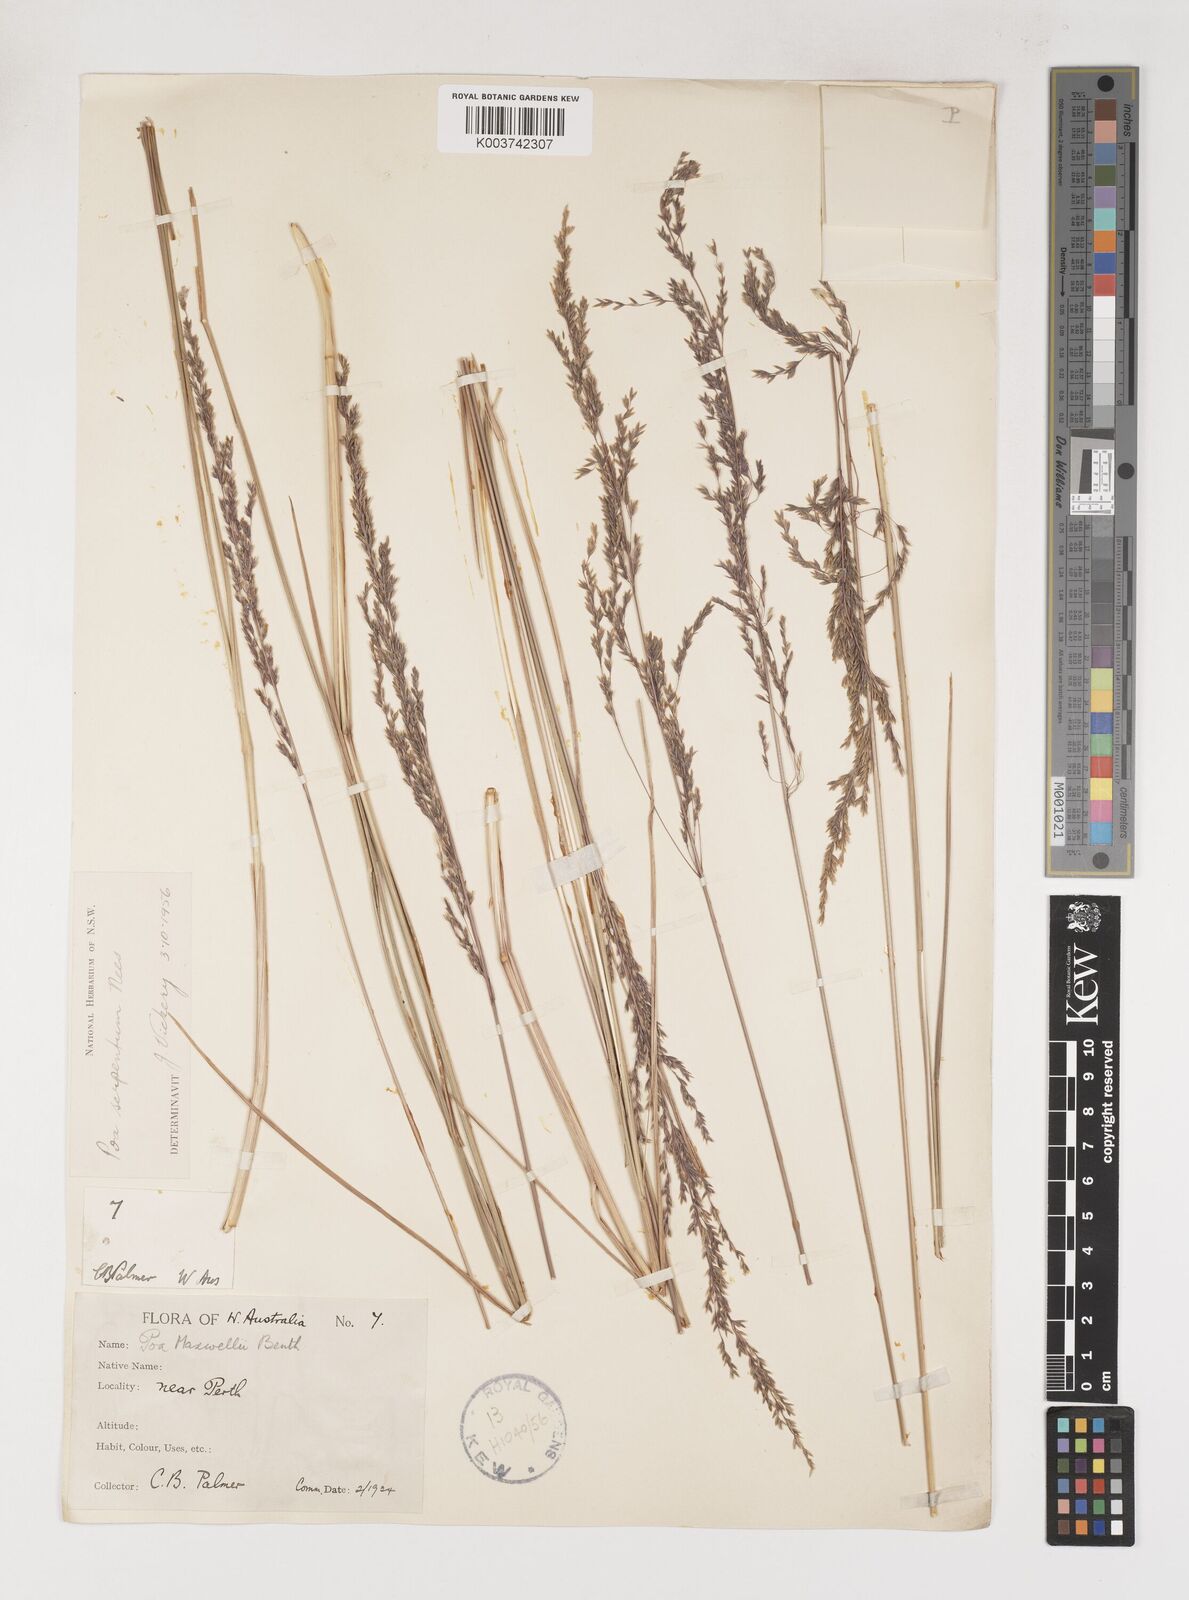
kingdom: Plantae
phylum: Tracheophyta
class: Liliopsida
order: Poales
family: Poaceae
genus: Poa
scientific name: Poa porphyroclados
